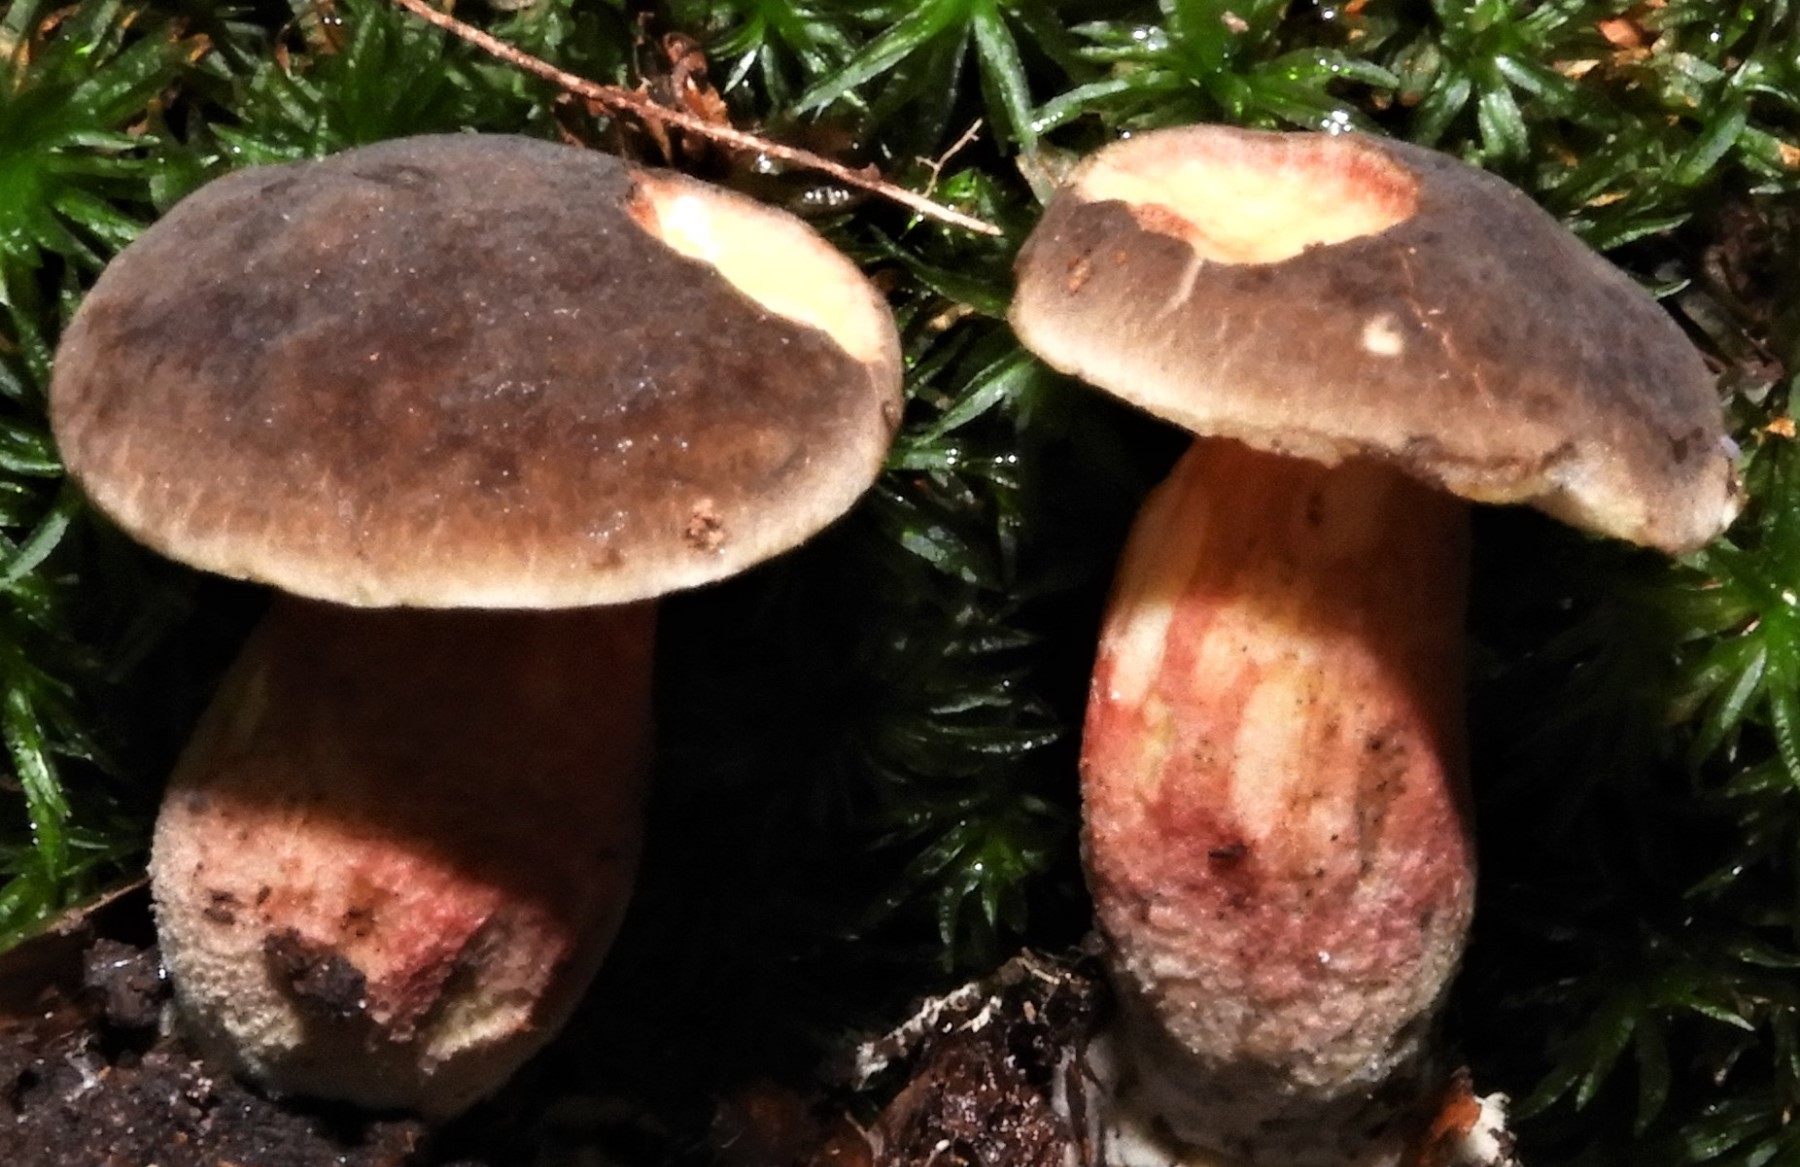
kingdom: Fungi
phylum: Basidiomycota
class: Agaricomycetes
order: Boletales
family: Boletaceae
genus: Xerocomellus
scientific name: Xerocomellus chrysenteron
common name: rødsprukken rørhat
